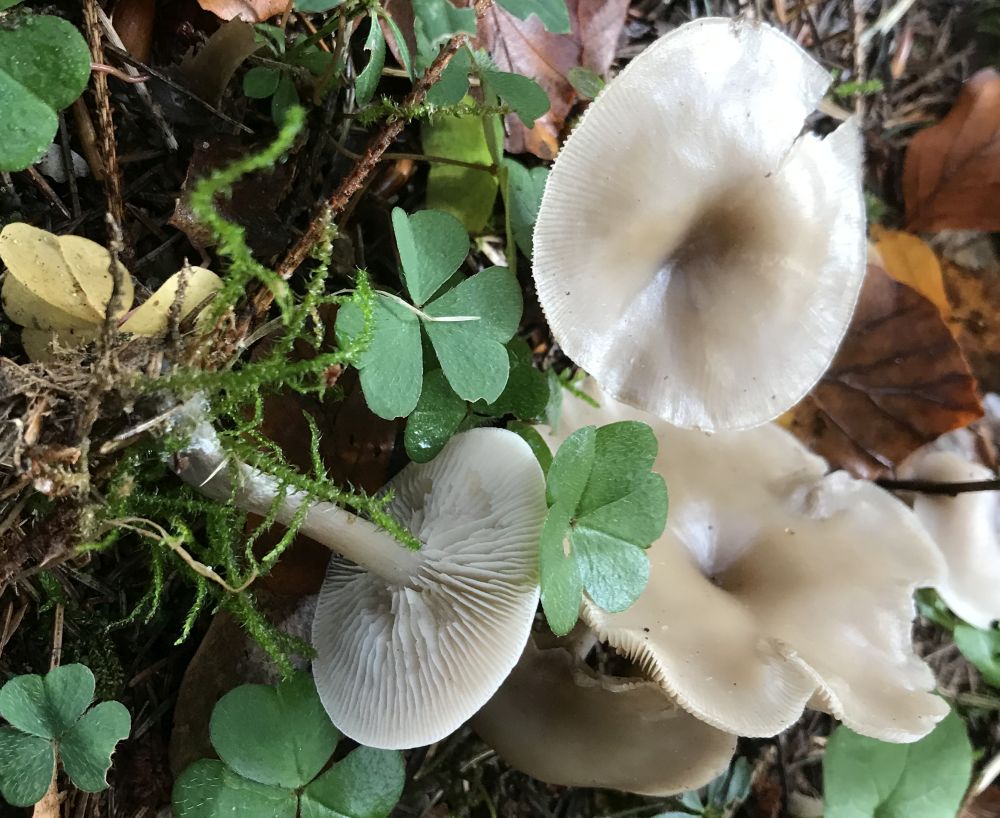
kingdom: Fungi
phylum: Basidiomycota
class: Agaricomycetes
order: Agaricales
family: Tricholomataceae
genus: Clitocybe
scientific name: Clitocybe metachroa
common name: grå tragthat
